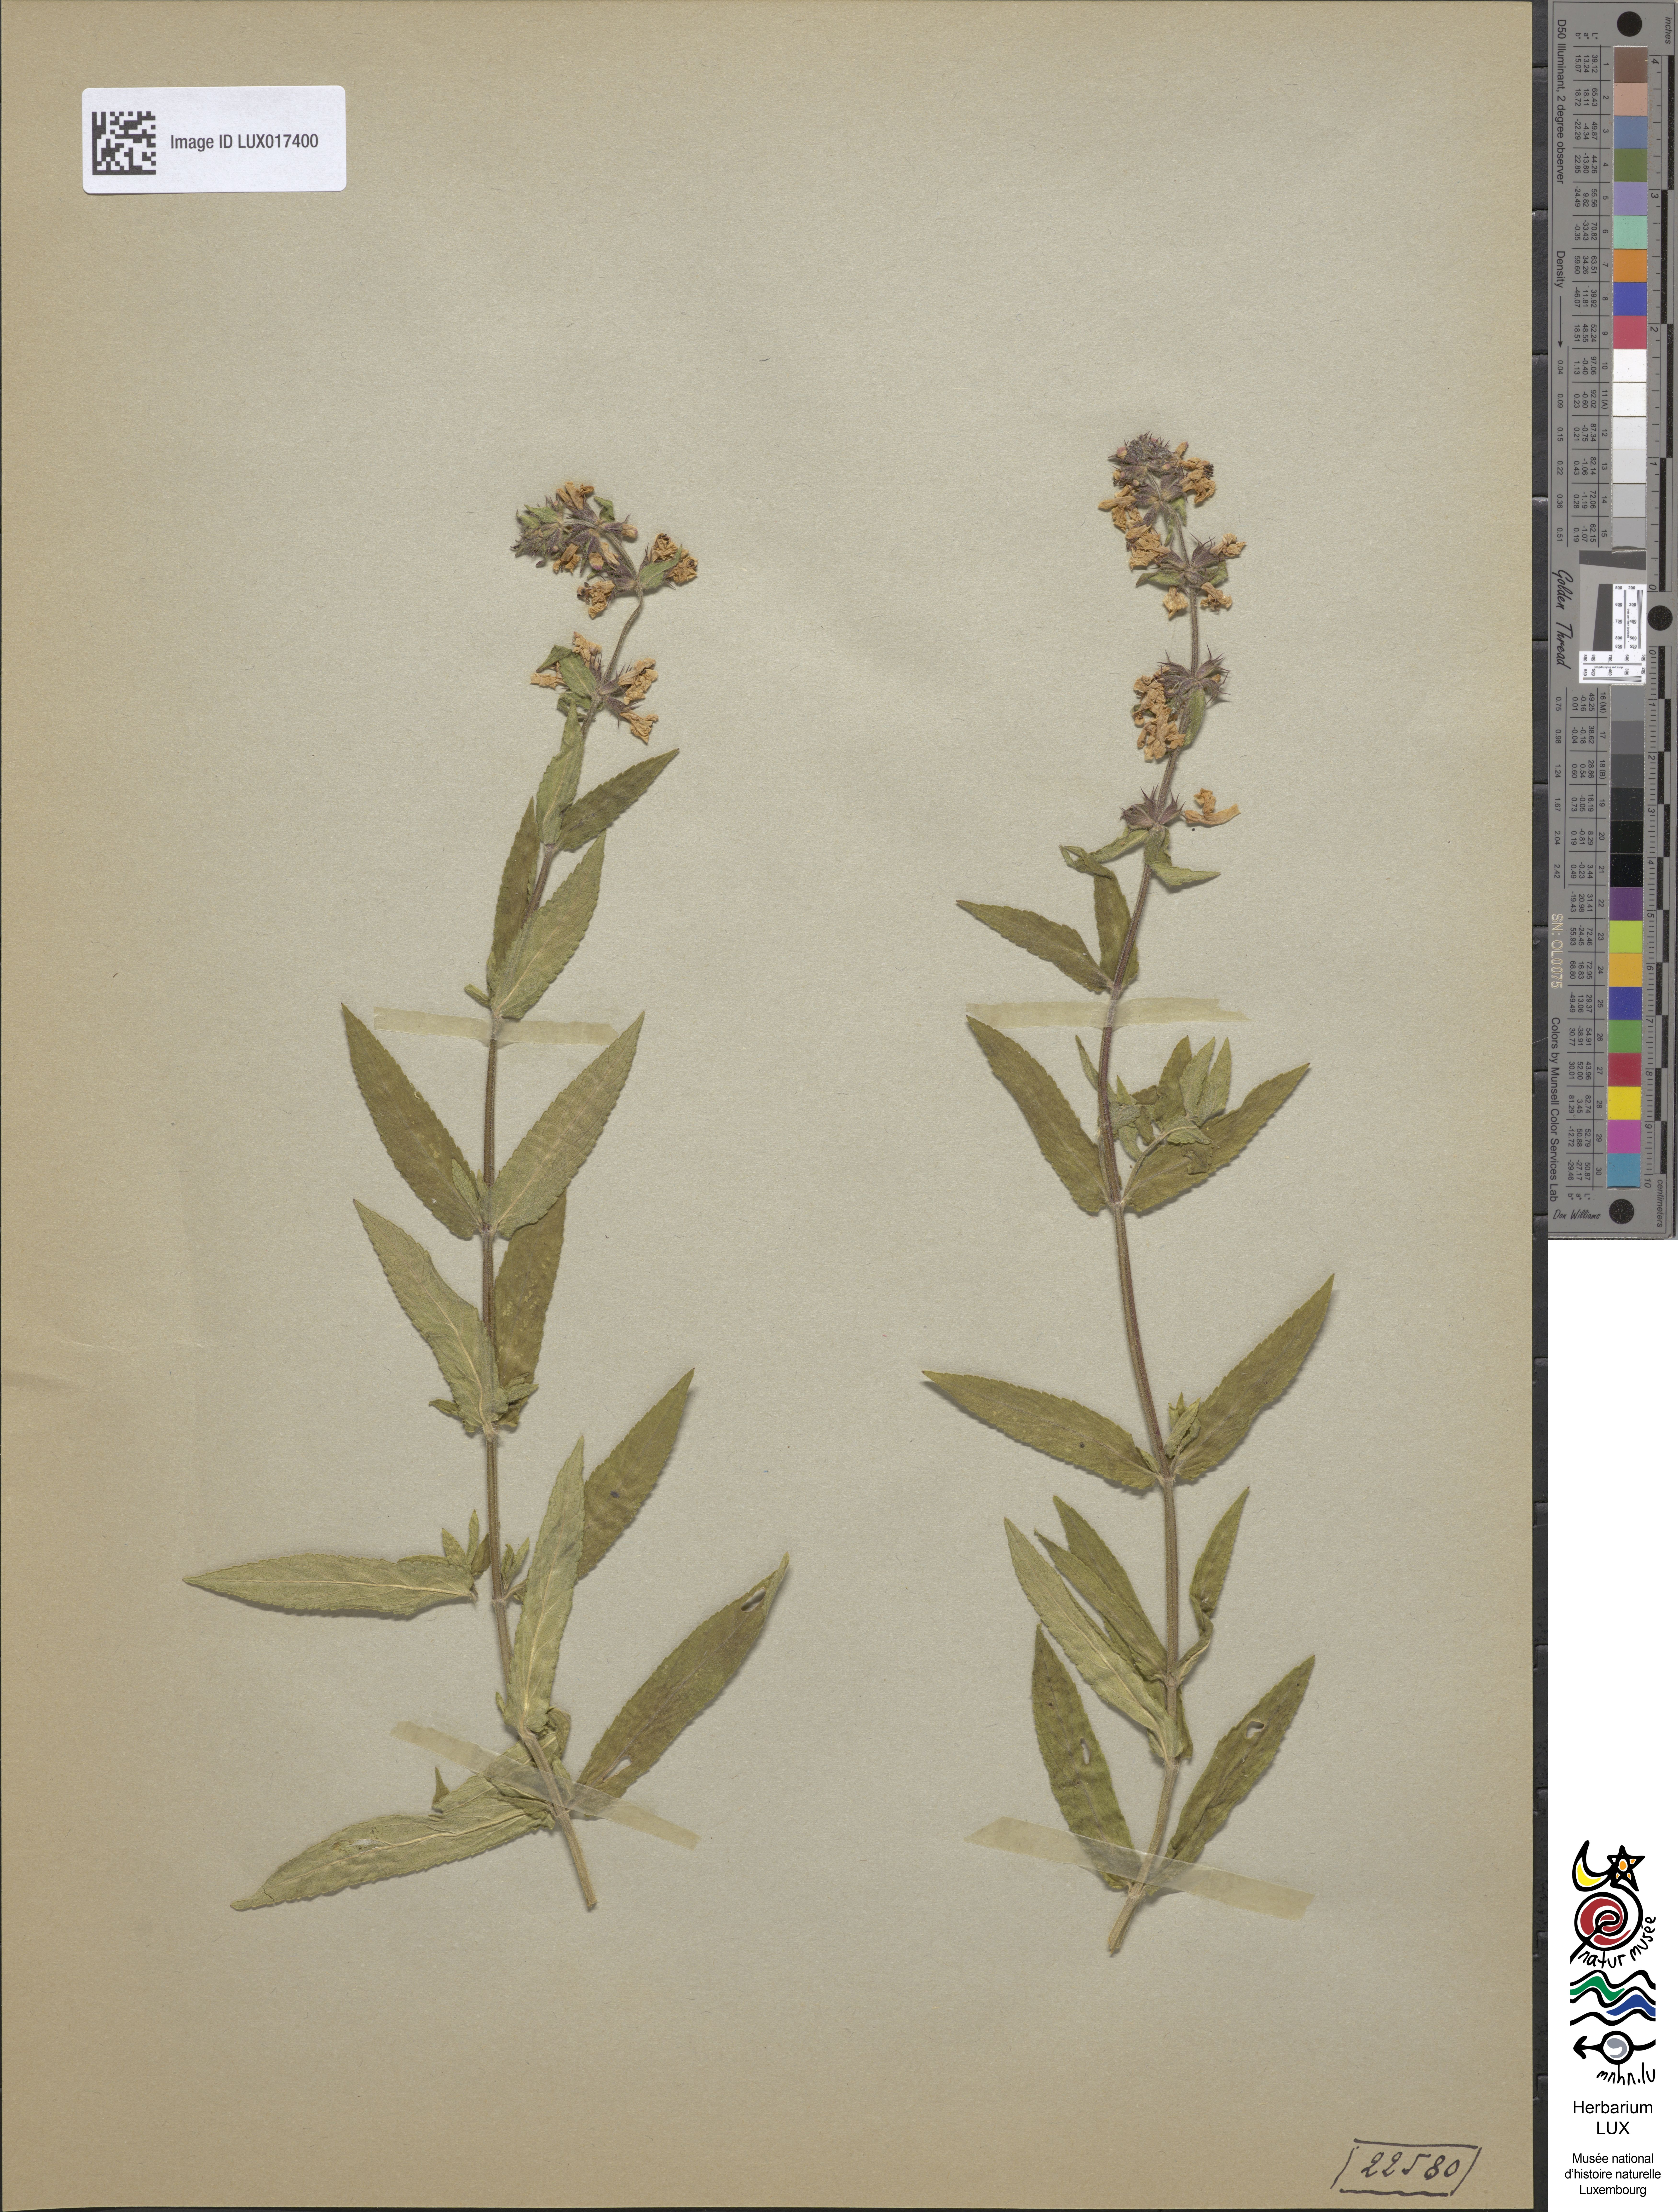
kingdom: Plantae
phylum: Tracheophyta
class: Magnoliopsida
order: Lamiales
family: Lamiaceae
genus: Stachys
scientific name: Stachys palustris
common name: Marsh woundwort
